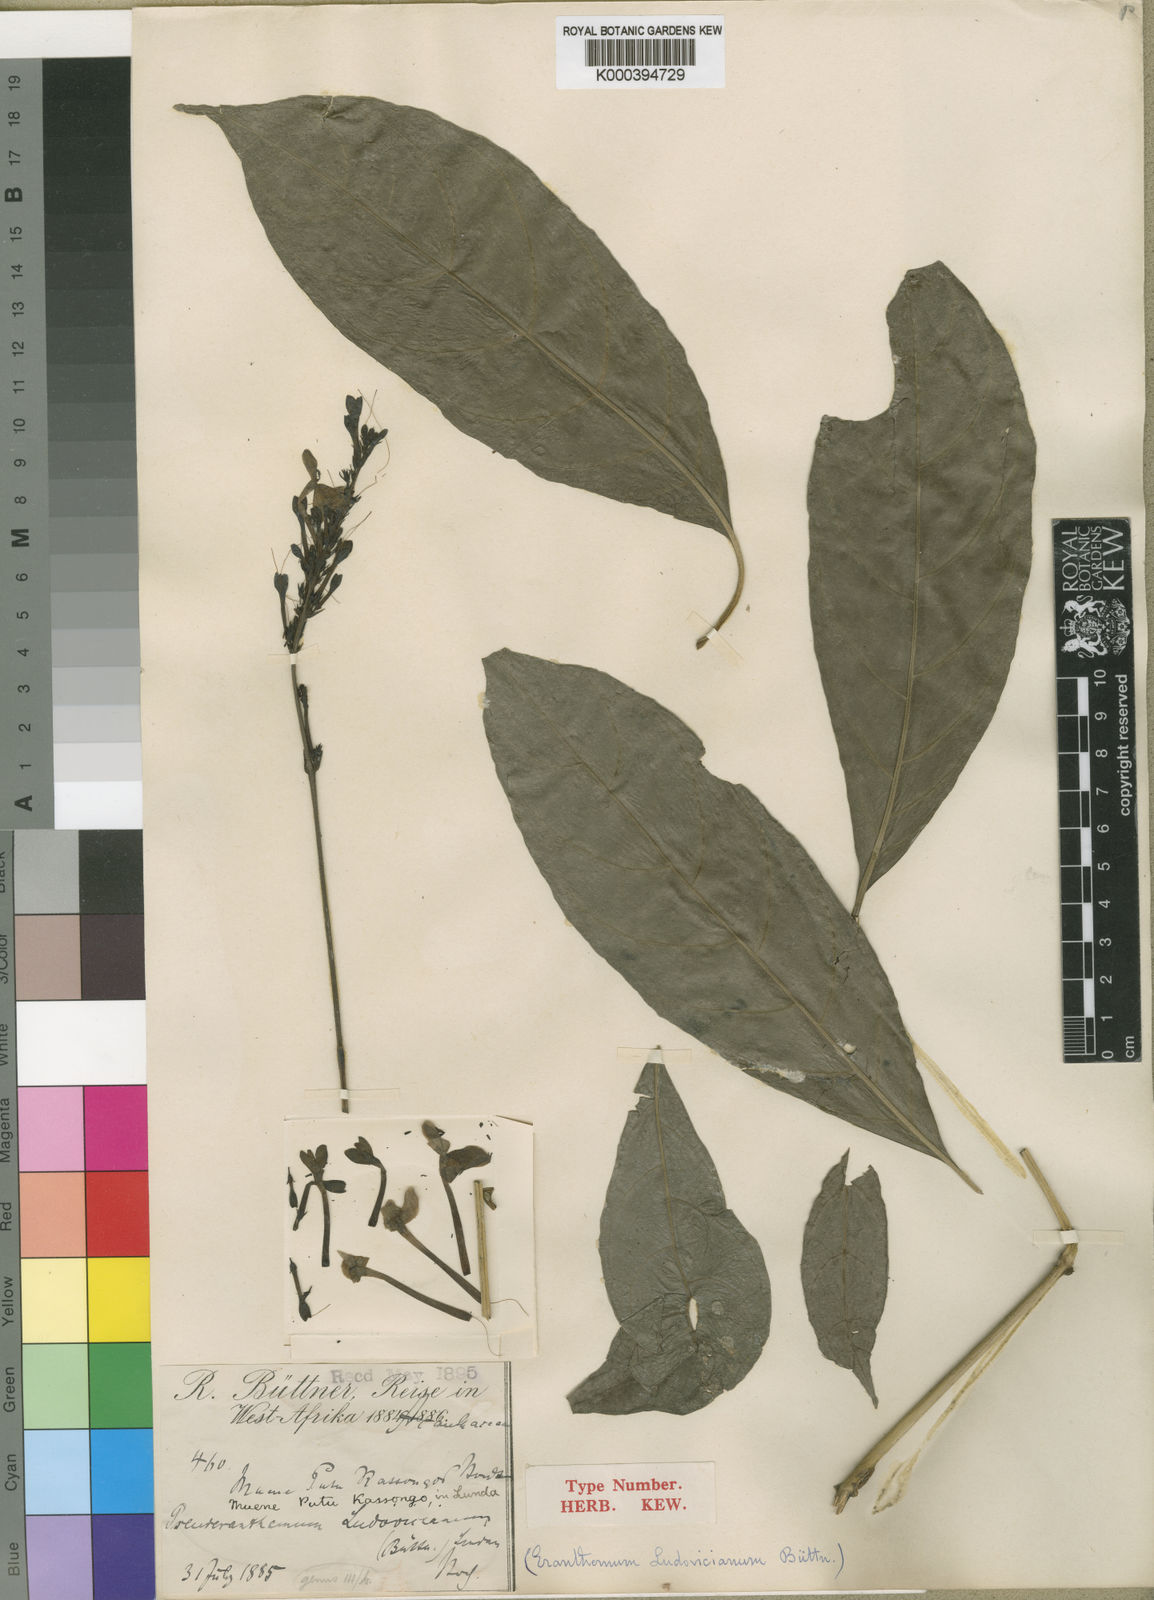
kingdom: Plantae
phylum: Tracheophyta
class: Magnoliopsida
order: Lamiales
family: Acanthaceae
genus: Pseuderanthemum
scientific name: Pseuderanthemum
